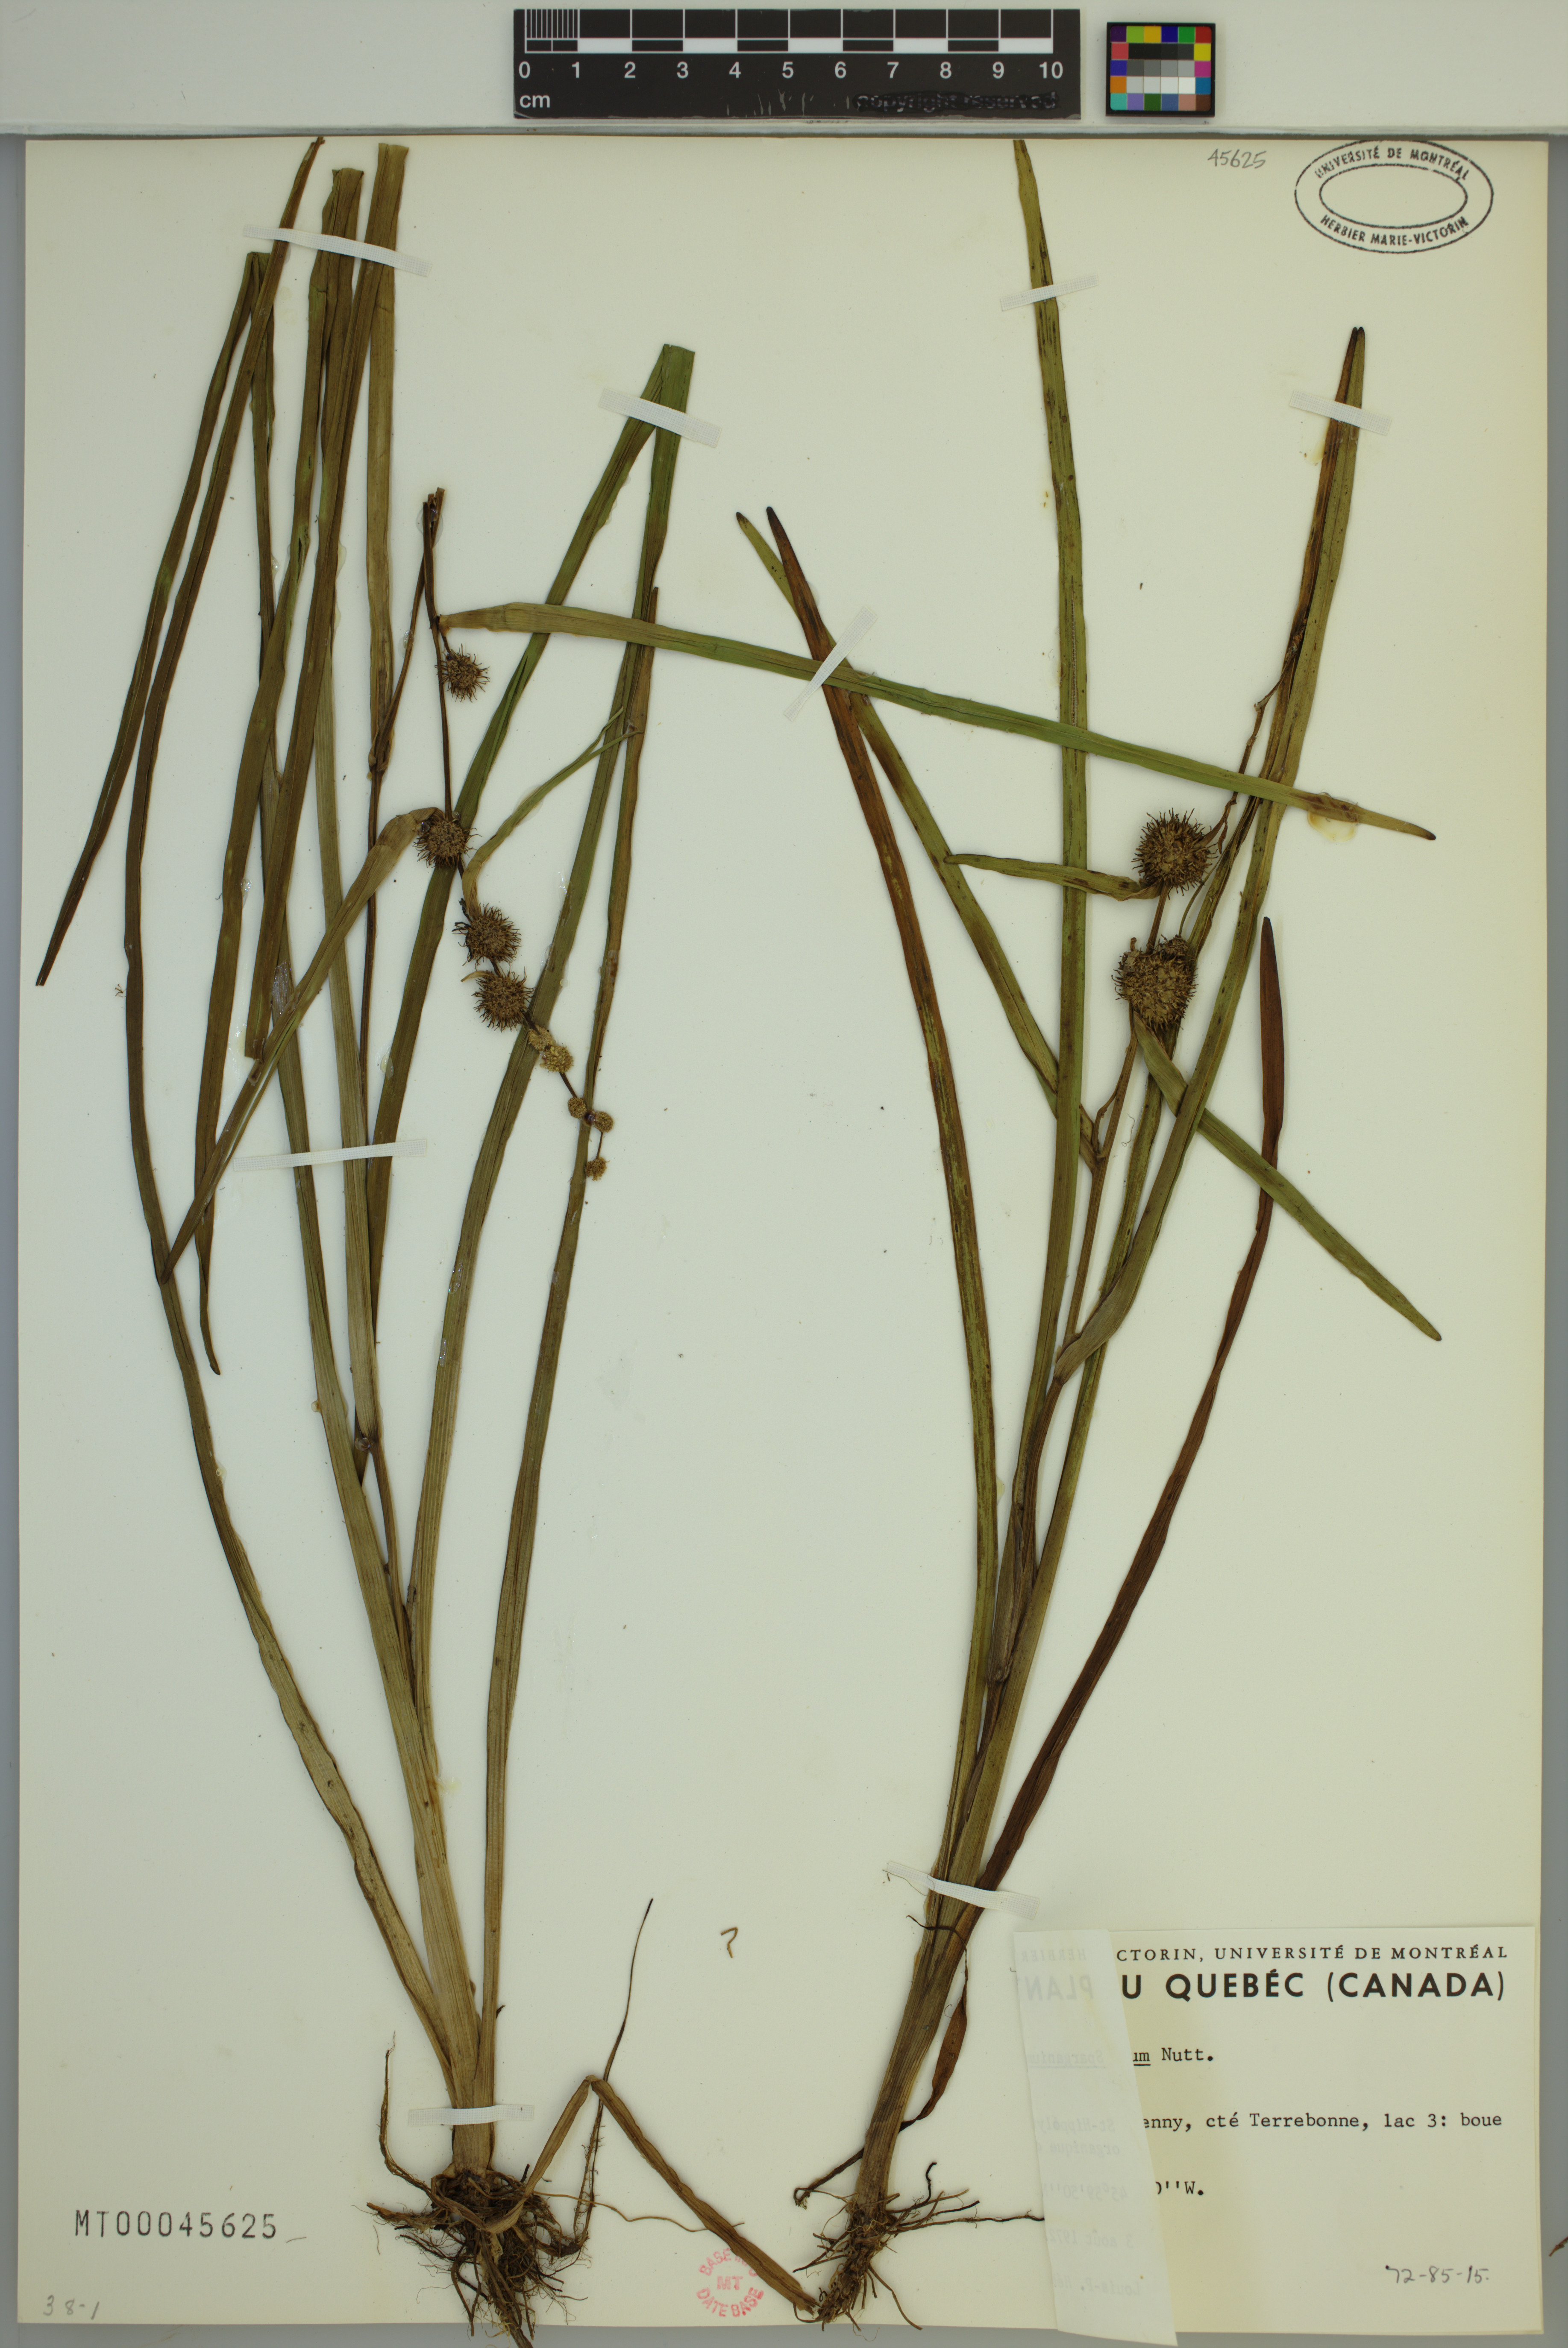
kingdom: Plantae
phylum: Tracheophyta
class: Liliopsida
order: Poales
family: Typhaceae
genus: Sparganium
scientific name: Sparganium americanum
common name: American burreed
